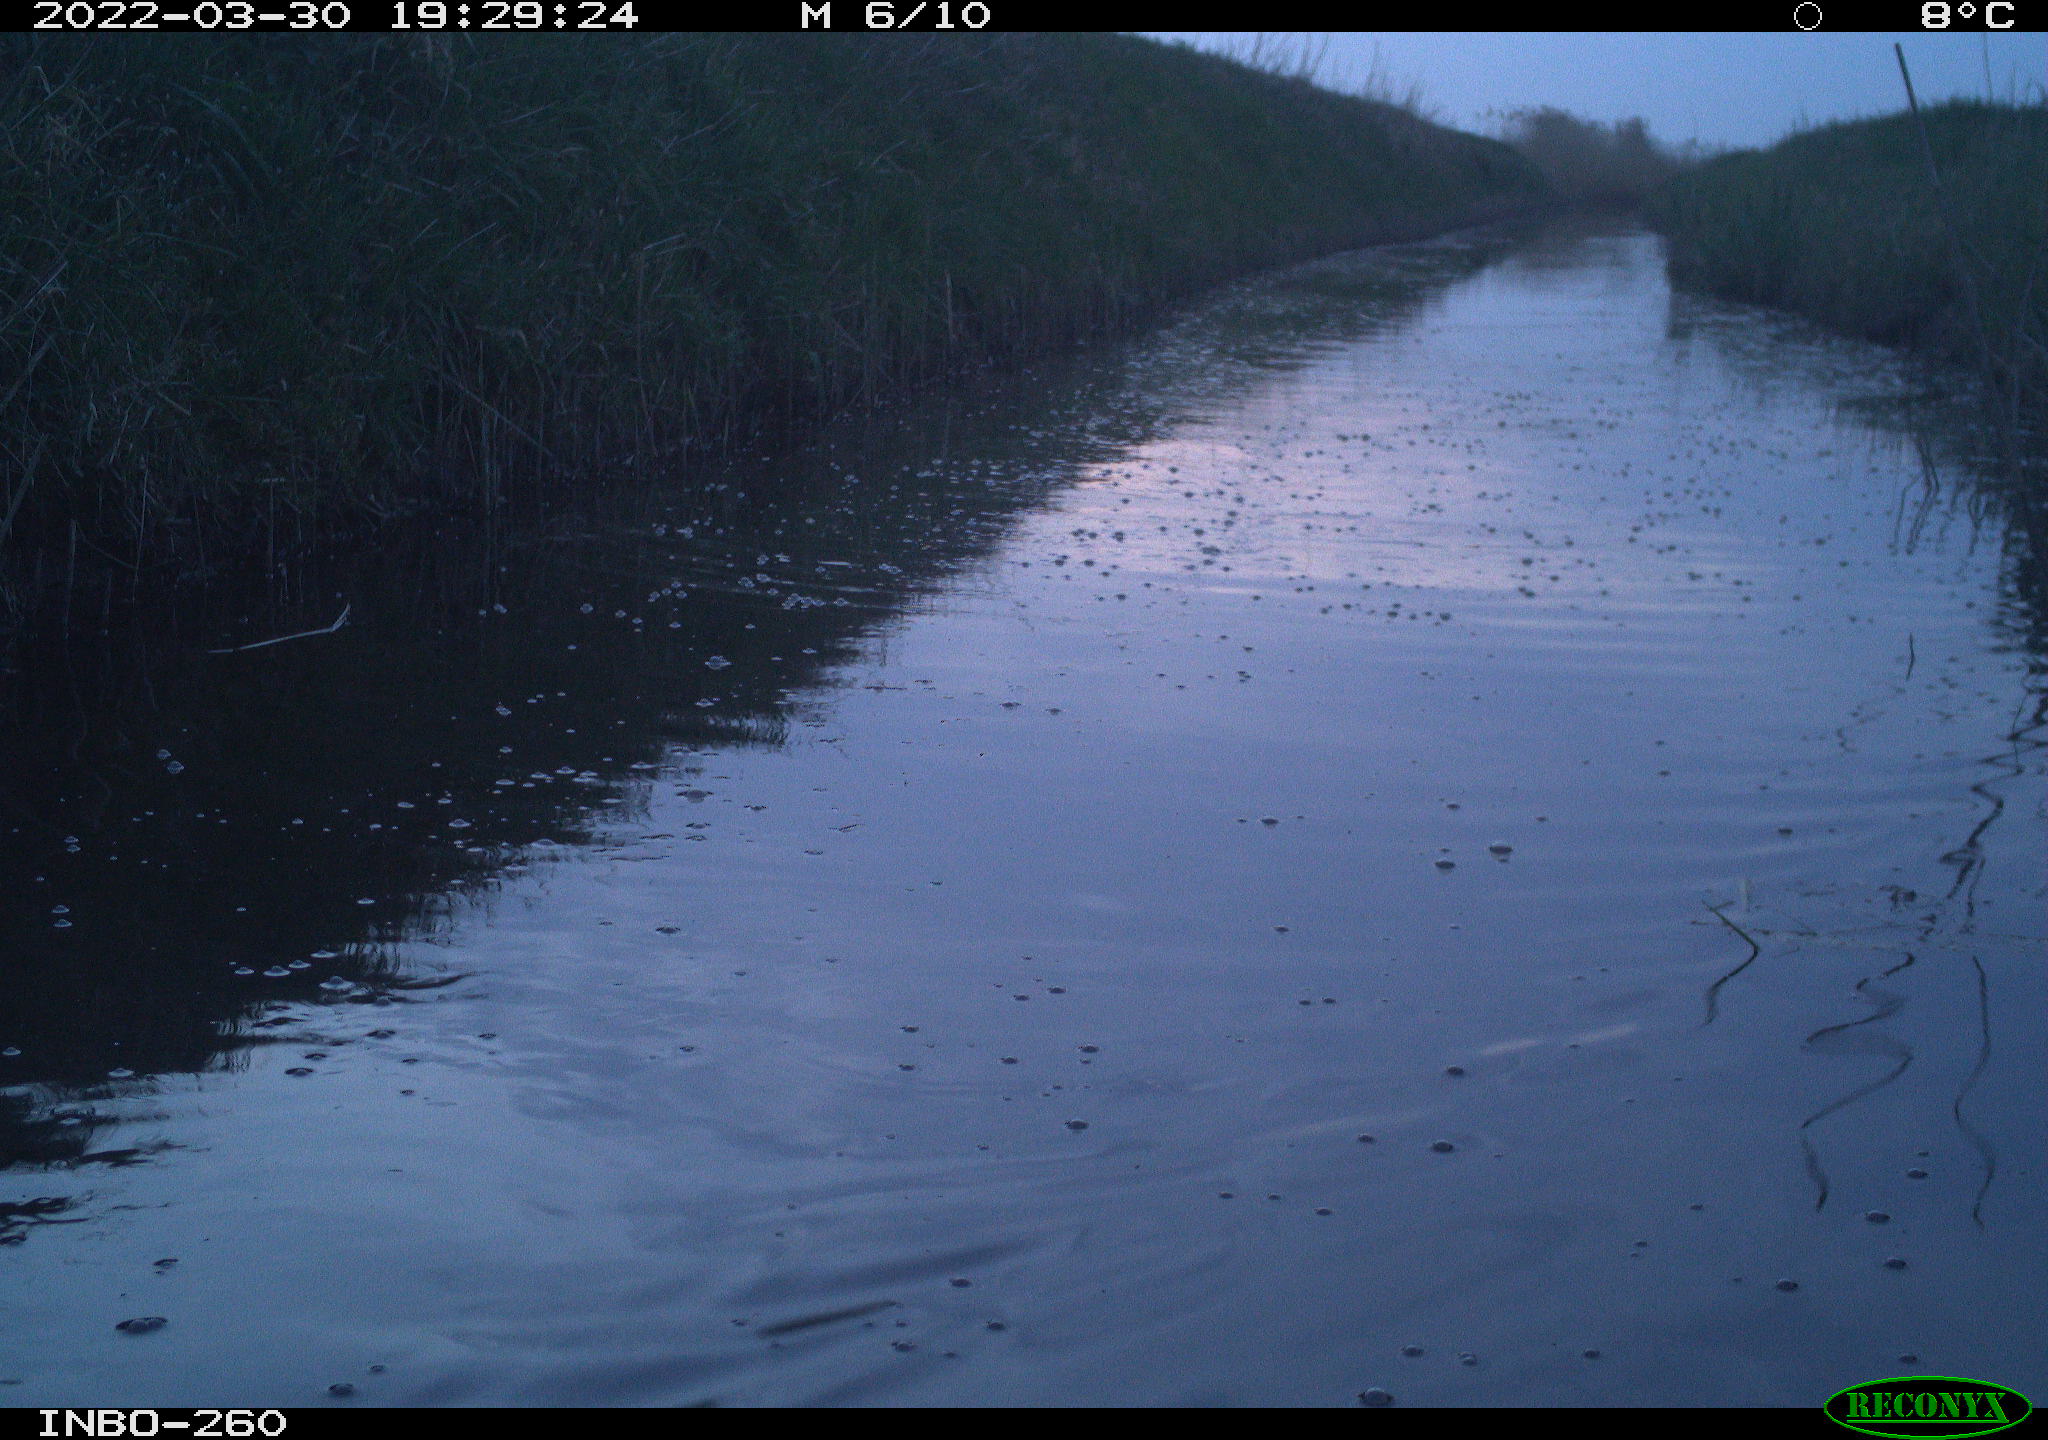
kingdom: Animalia
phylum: Chordata
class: Aves
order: Gruiformes
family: Rallidae
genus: Fulica
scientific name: Fulica atra
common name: Eurasian coot
